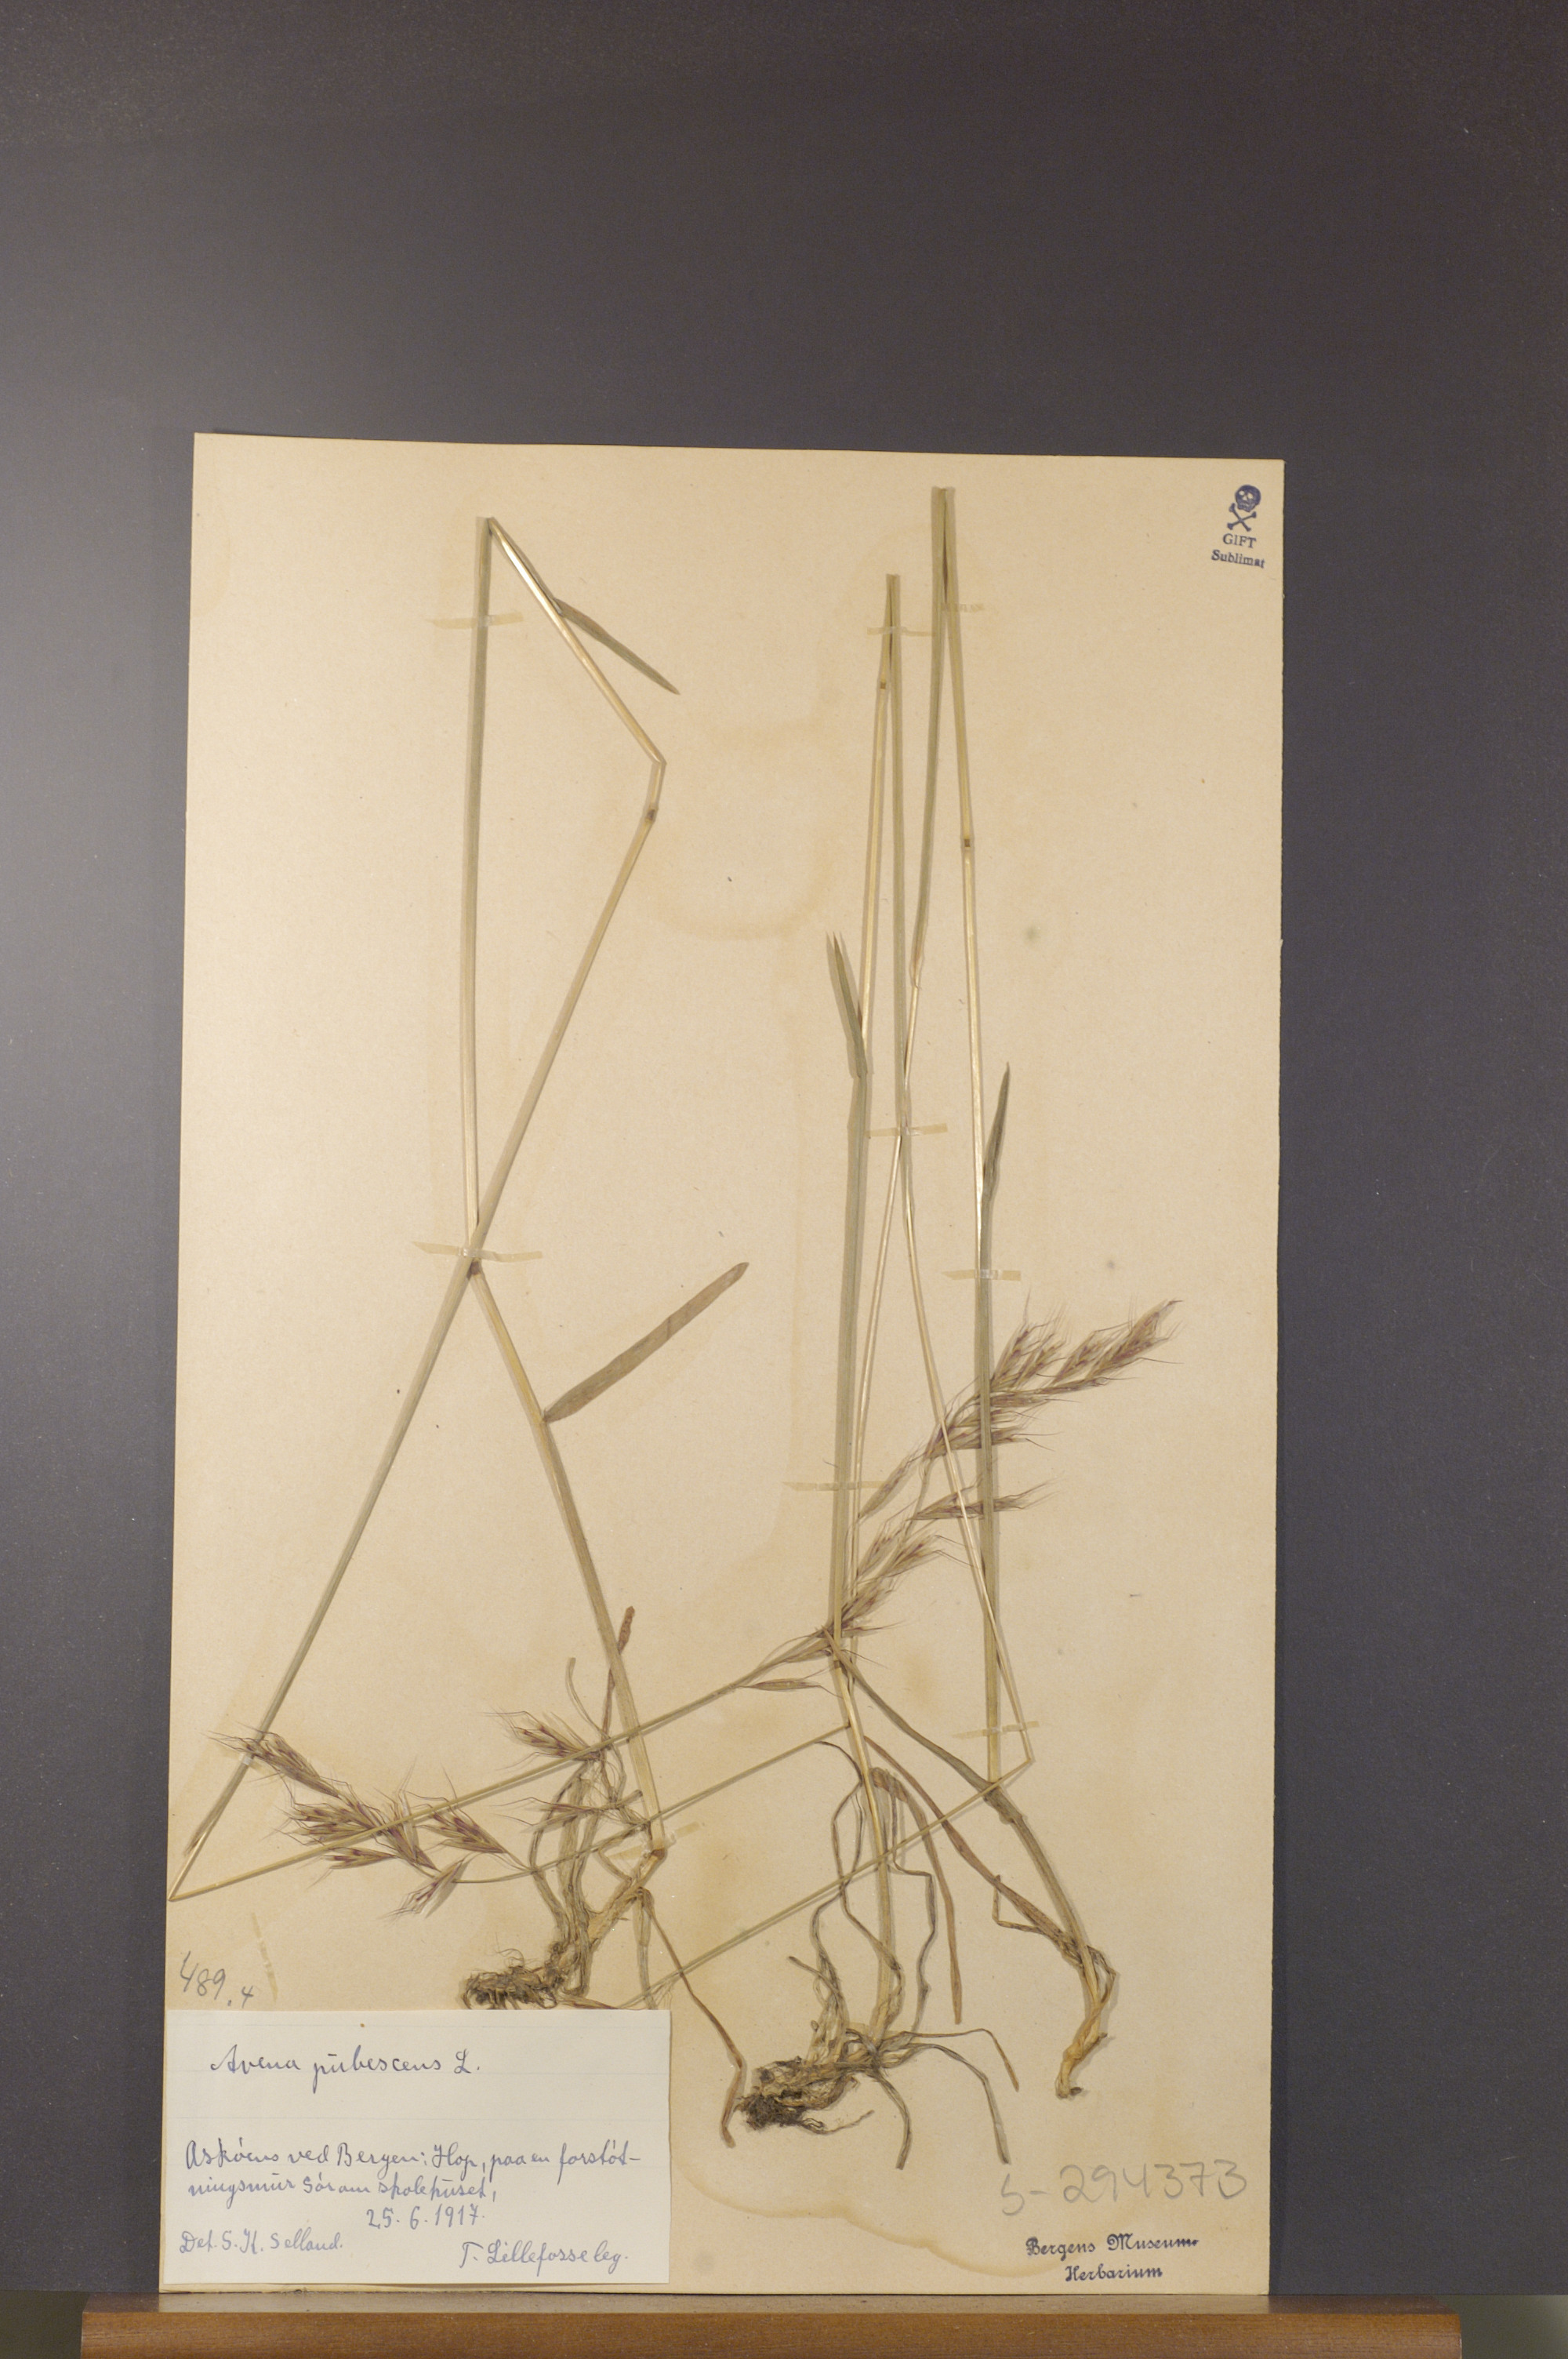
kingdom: Plantae
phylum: Tracheophyta
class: Liliopsida
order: Poales
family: Poaceae
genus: Avenula
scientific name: Avenula pubescens
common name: Downy alpine oatgrass
